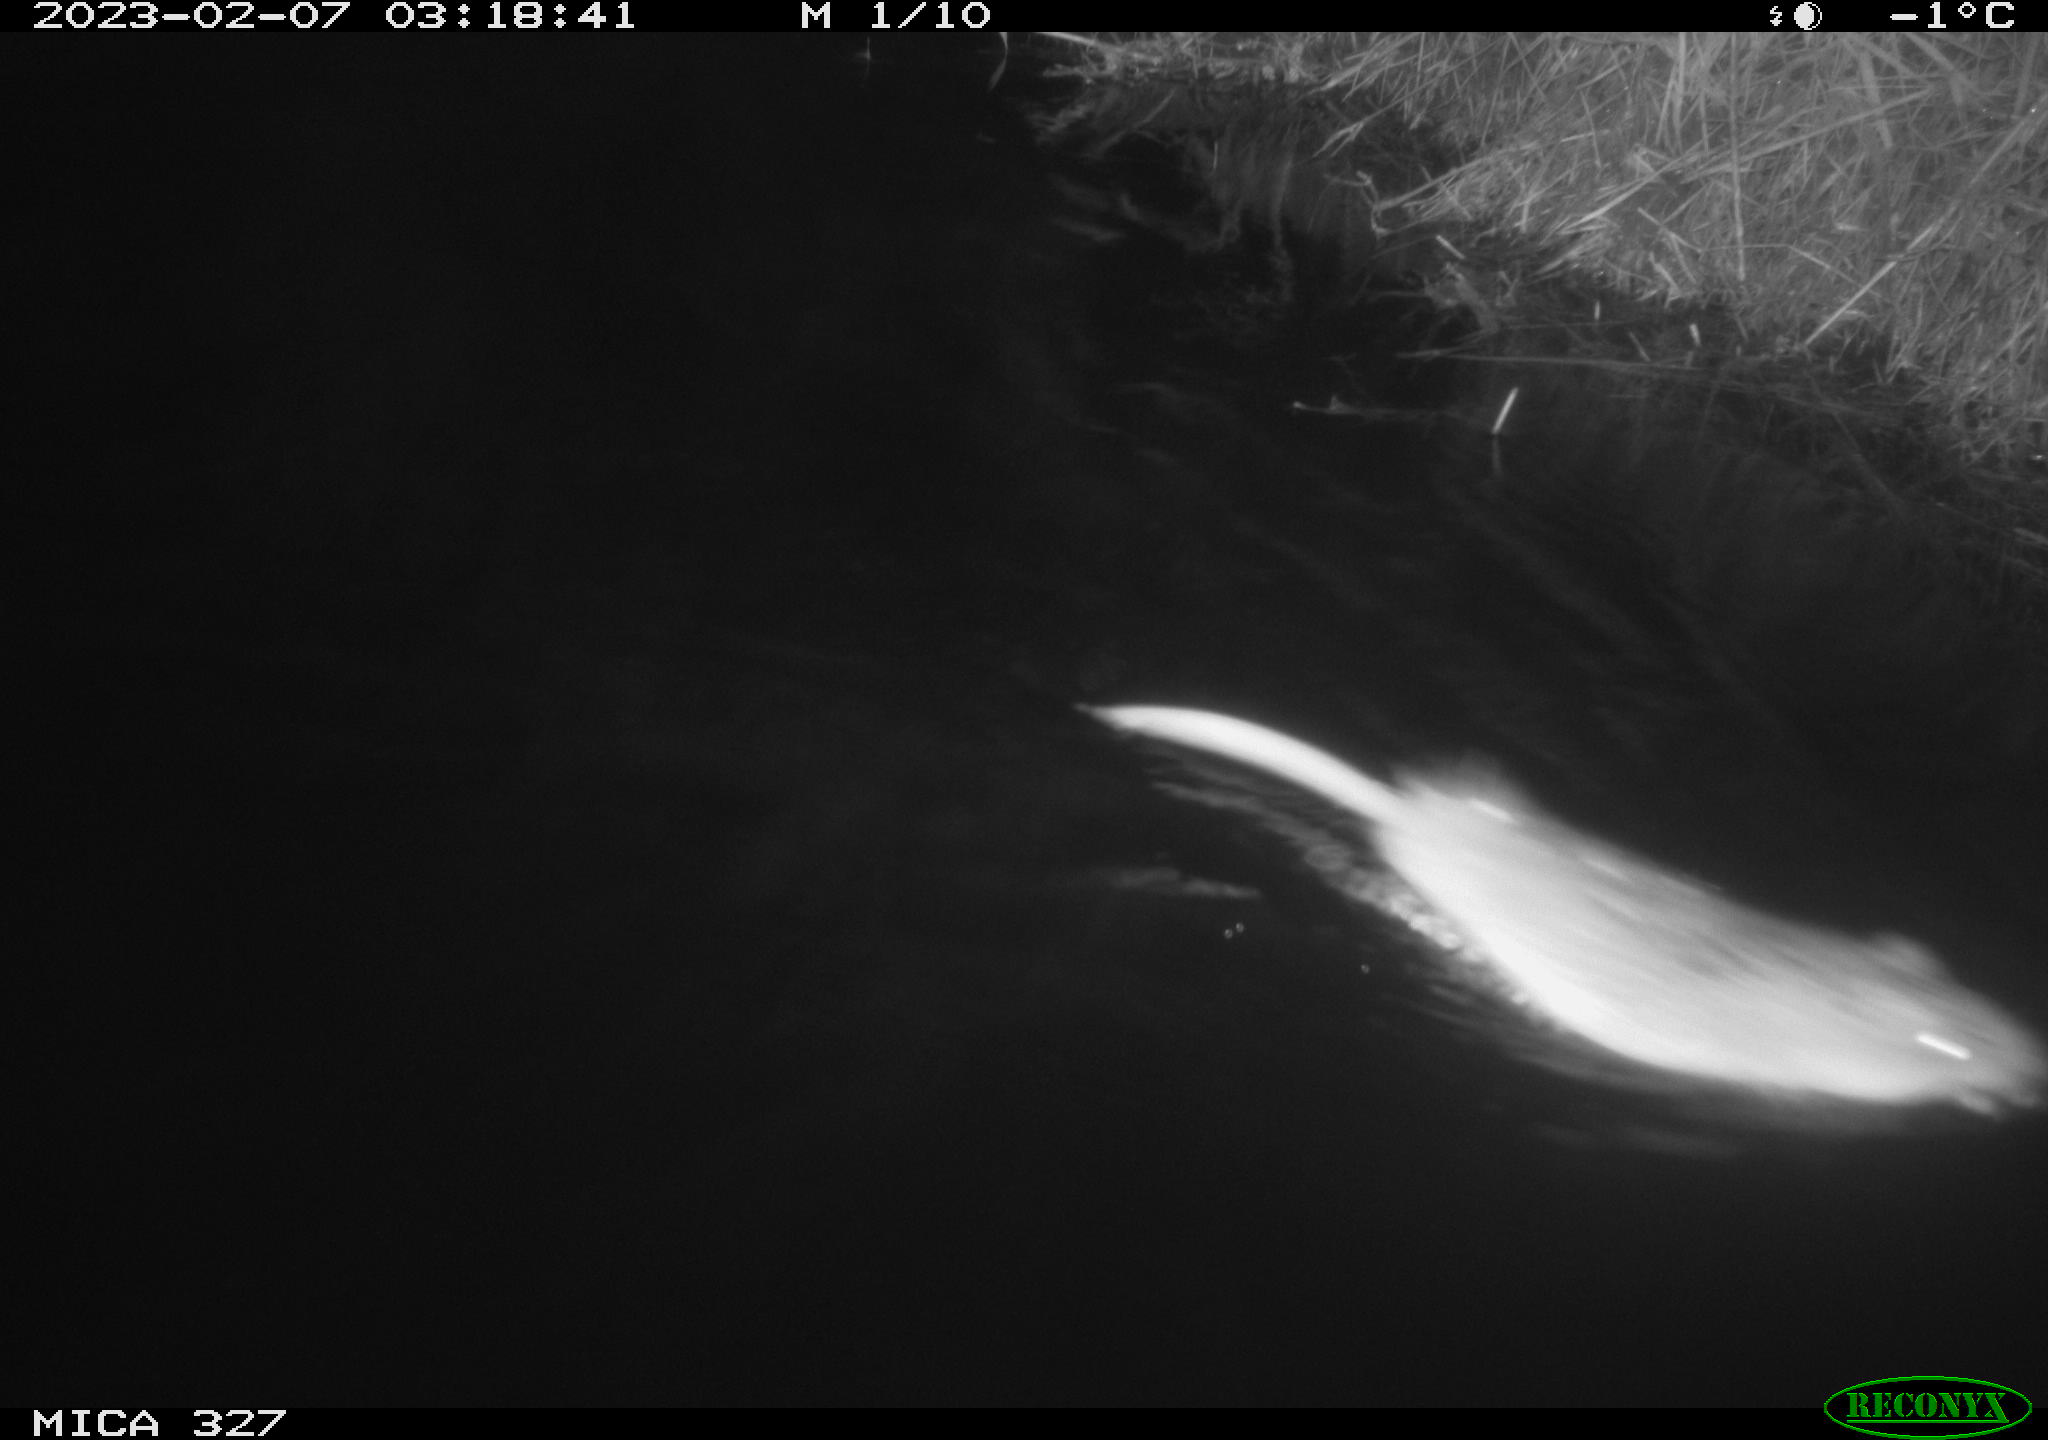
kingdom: Animalia
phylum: Chordata
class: Mammalia
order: Rodentia
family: Cricetidae
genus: Ondatra
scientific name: Ondatra zibethicus
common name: Muskrat
